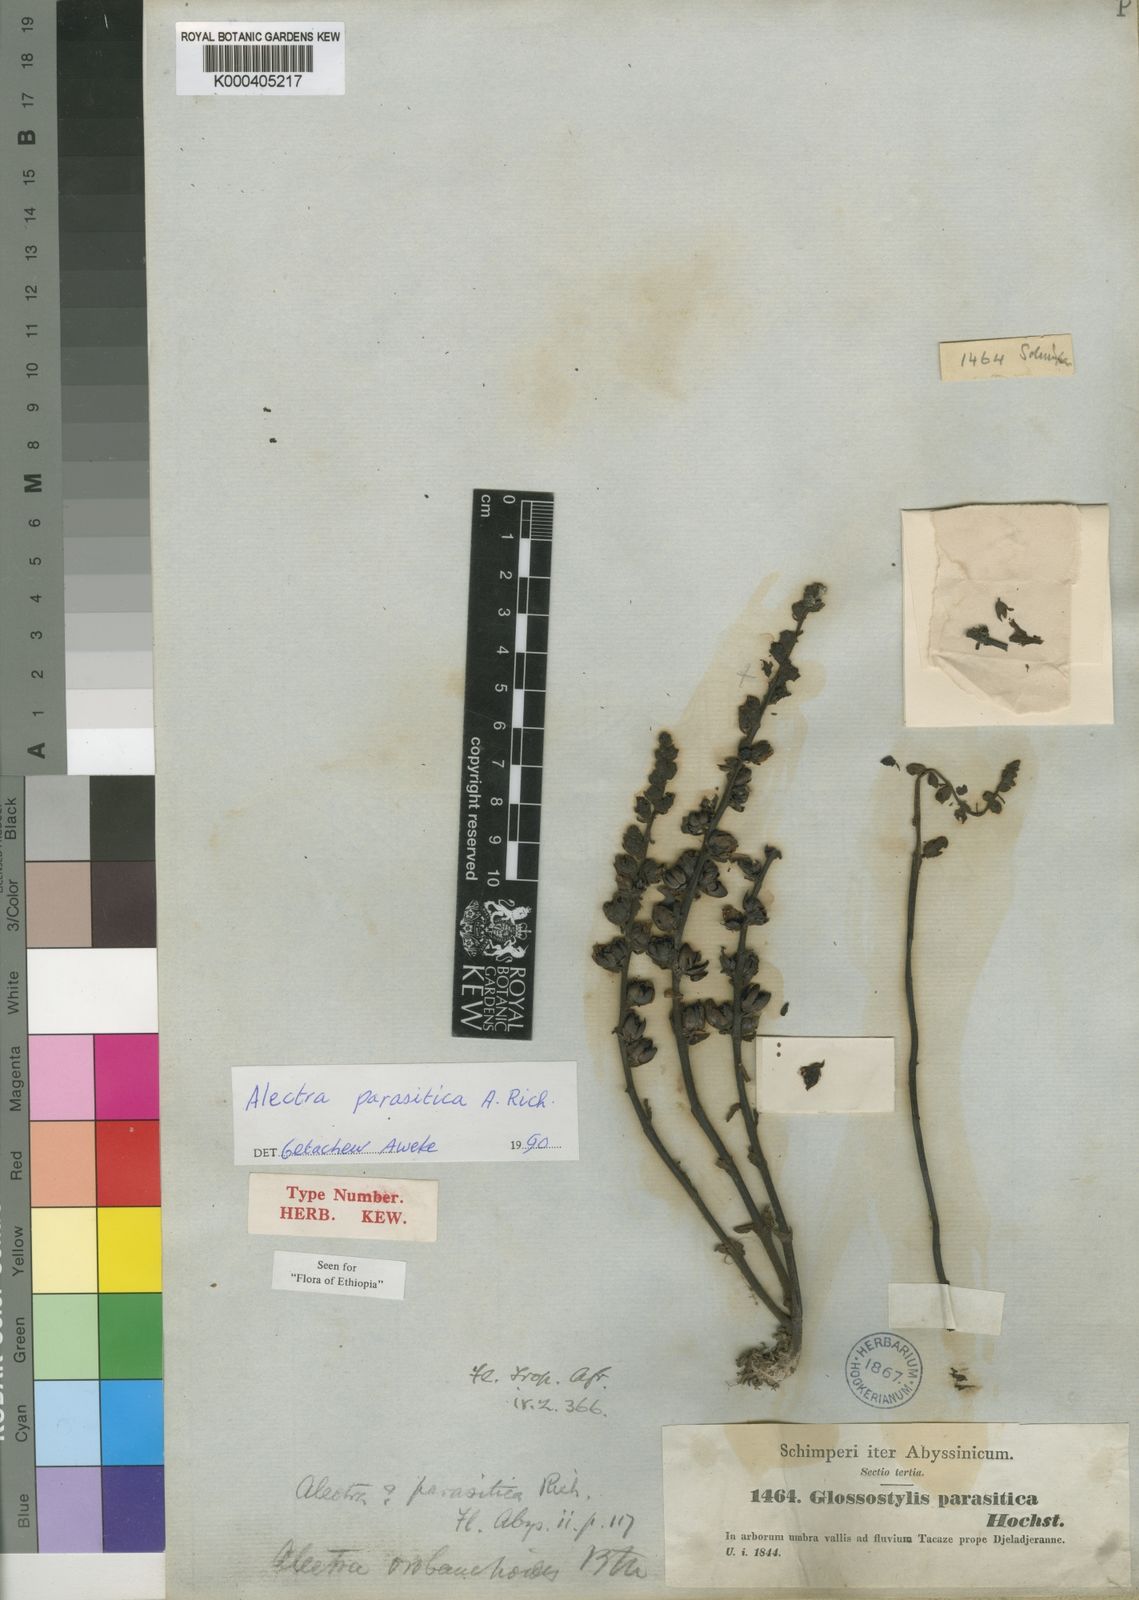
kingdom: Plantae
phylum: Tracheophyta
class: Magnoliopsida
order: Lamiales
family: Orobanchaceae
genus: Alectra
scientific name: Alectra parasitica
